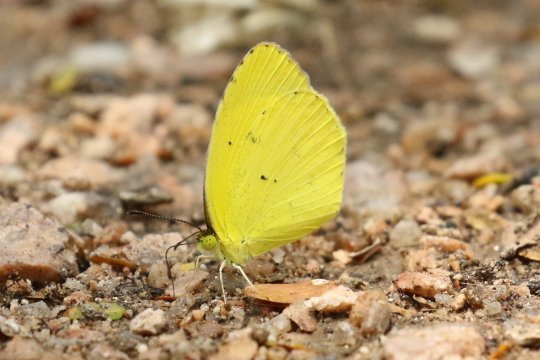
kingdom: Animalia
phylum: Arthropoda
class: Insecta
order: Lepidoptera
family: Pieridae
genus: Pyrisitia
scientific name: Pyrisitia nise
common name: Mimosa Yellow
